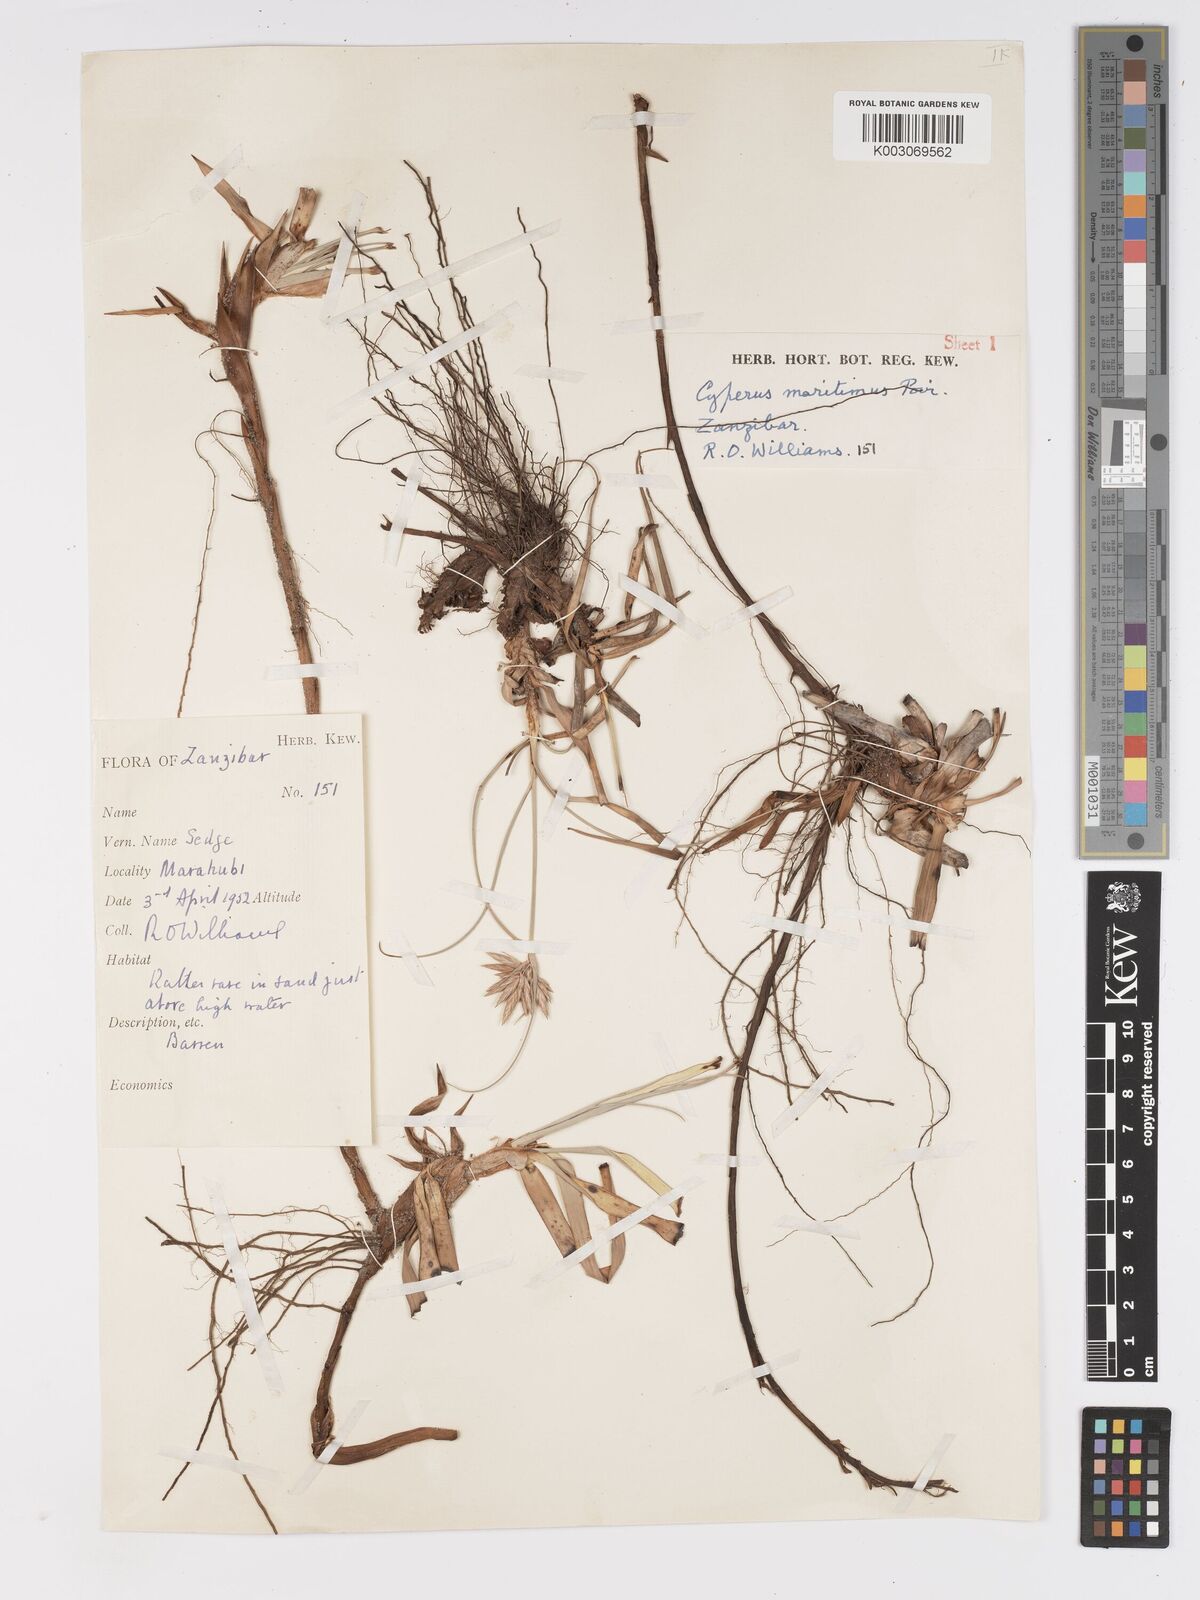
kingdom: Plantae
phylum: Tracheophyta
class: Liliopsida
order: Poales
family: Cyperaceae
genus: Cyperus
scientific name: Cyperus crassipes
